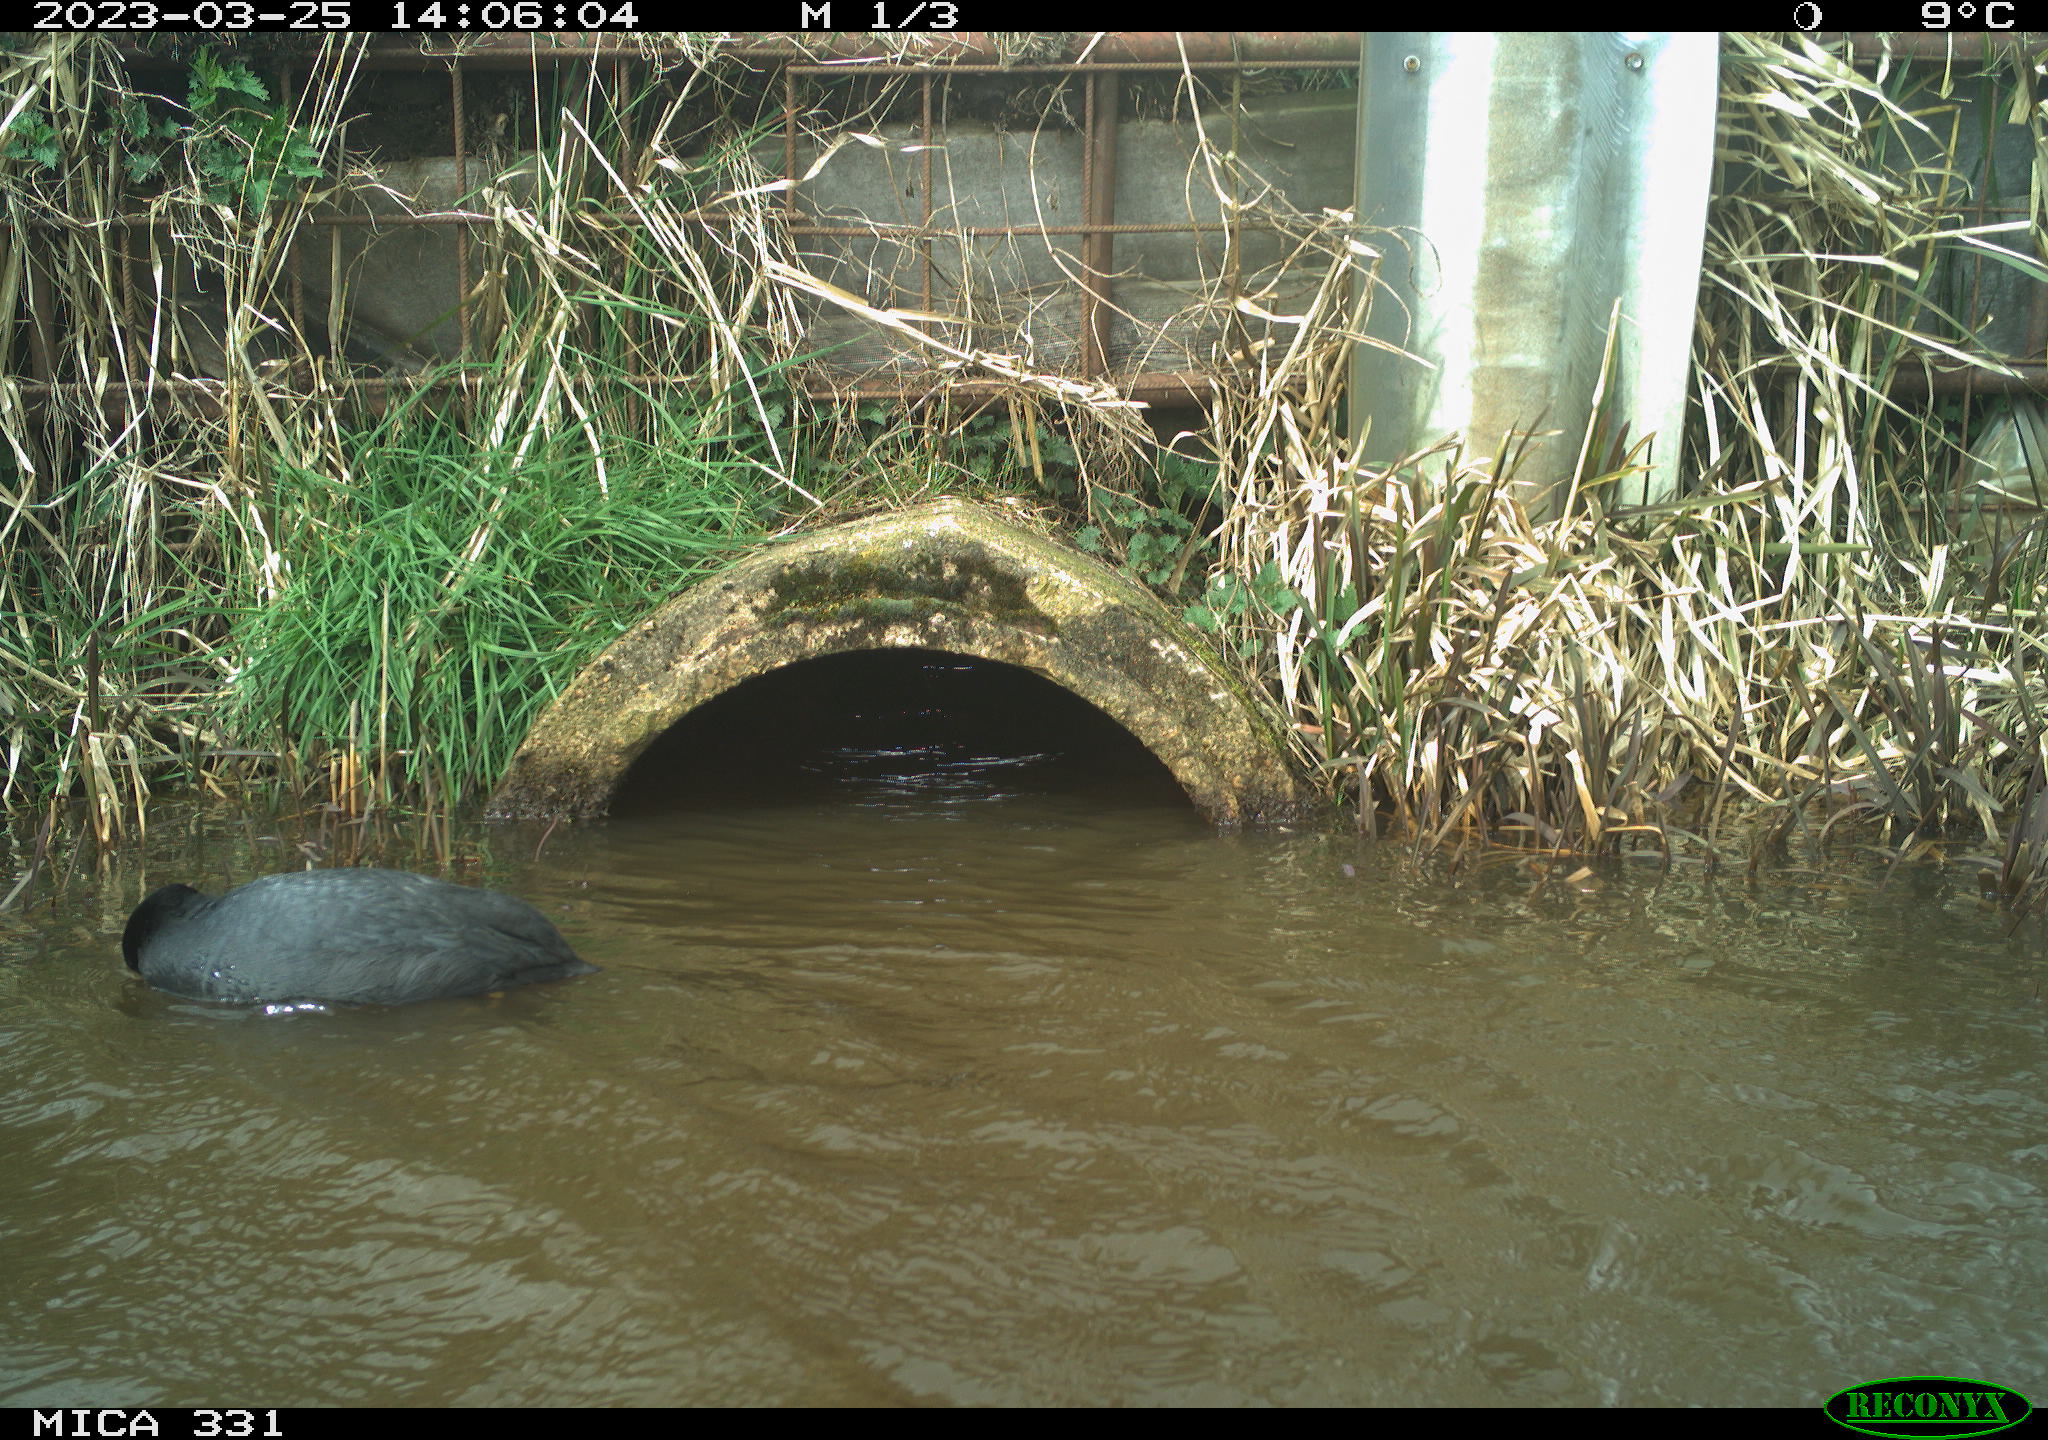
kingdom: Animalia
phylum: Chordata
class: Aves
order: Gruiformes
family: Rallidae
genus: Fulica
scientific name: Fulica atra
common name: Eurasian coot
